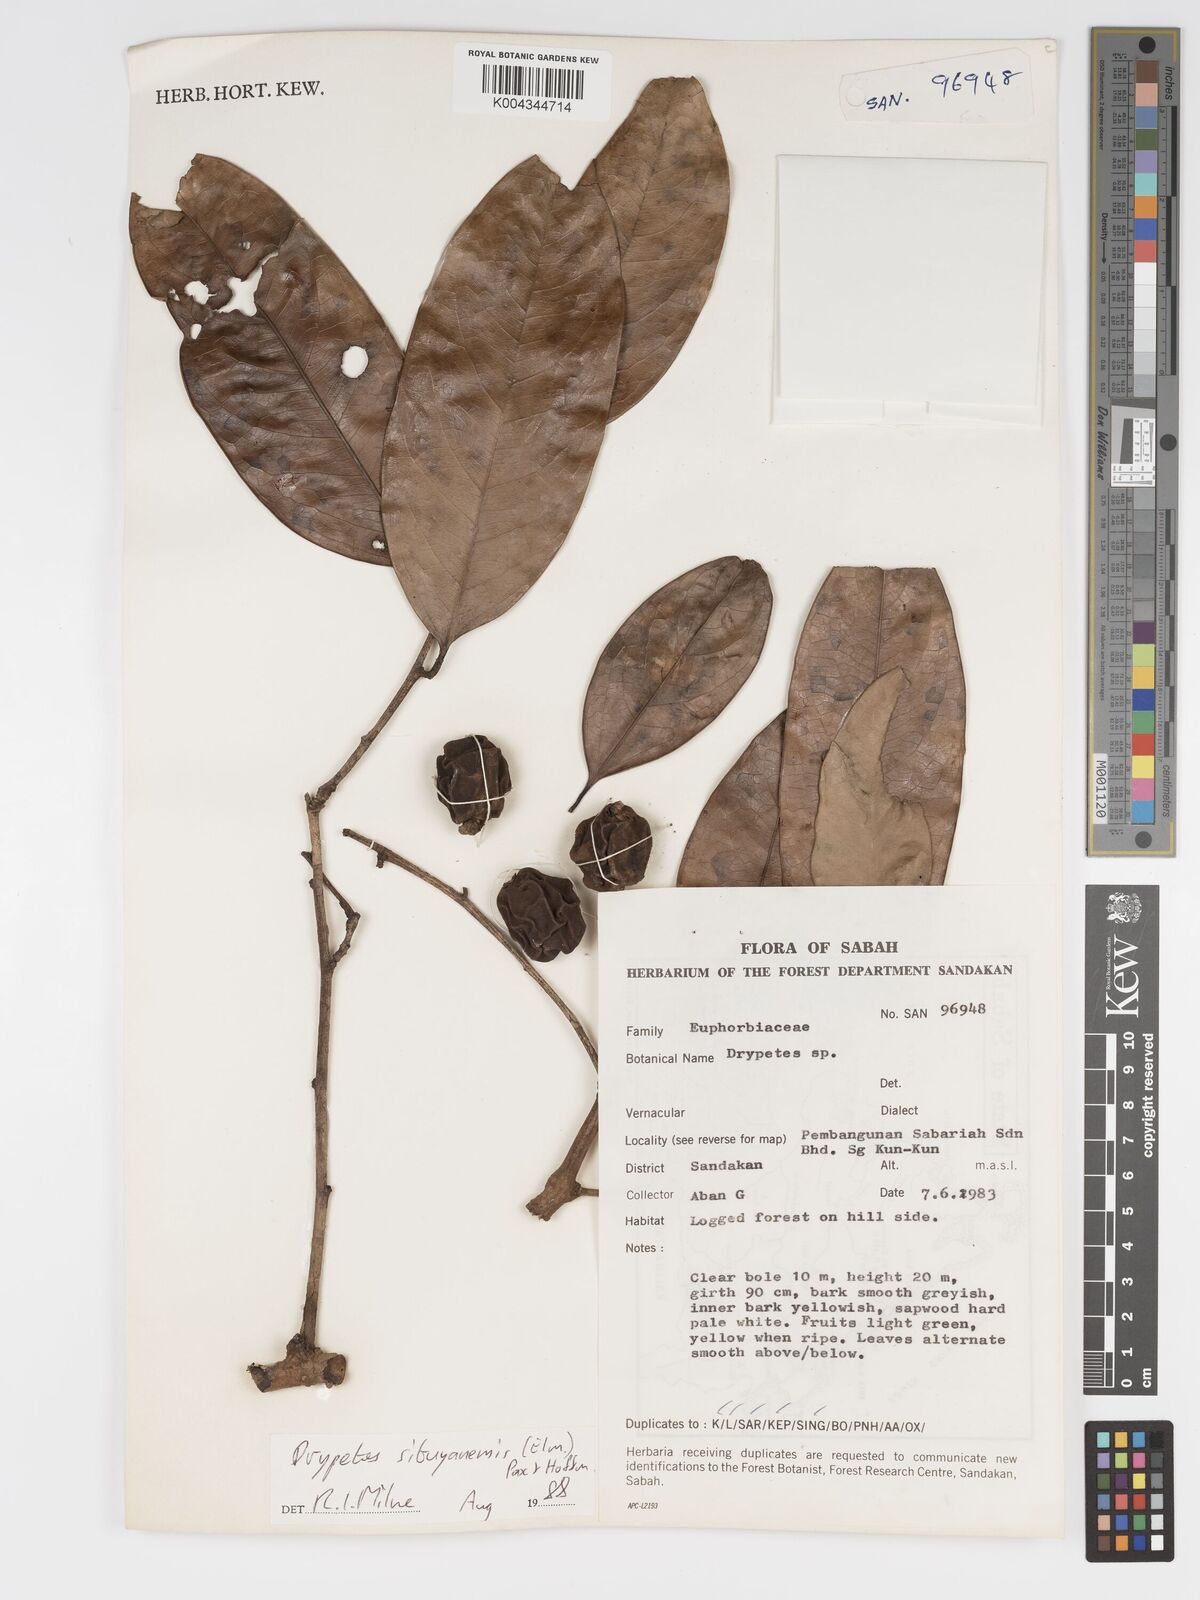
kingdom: Plantae
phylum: Tracheophyta
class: Magnoliopsida
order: Malpighiales
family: Putranjivaceae
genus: Drypetes
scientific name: Drypetes sibuyanensis
